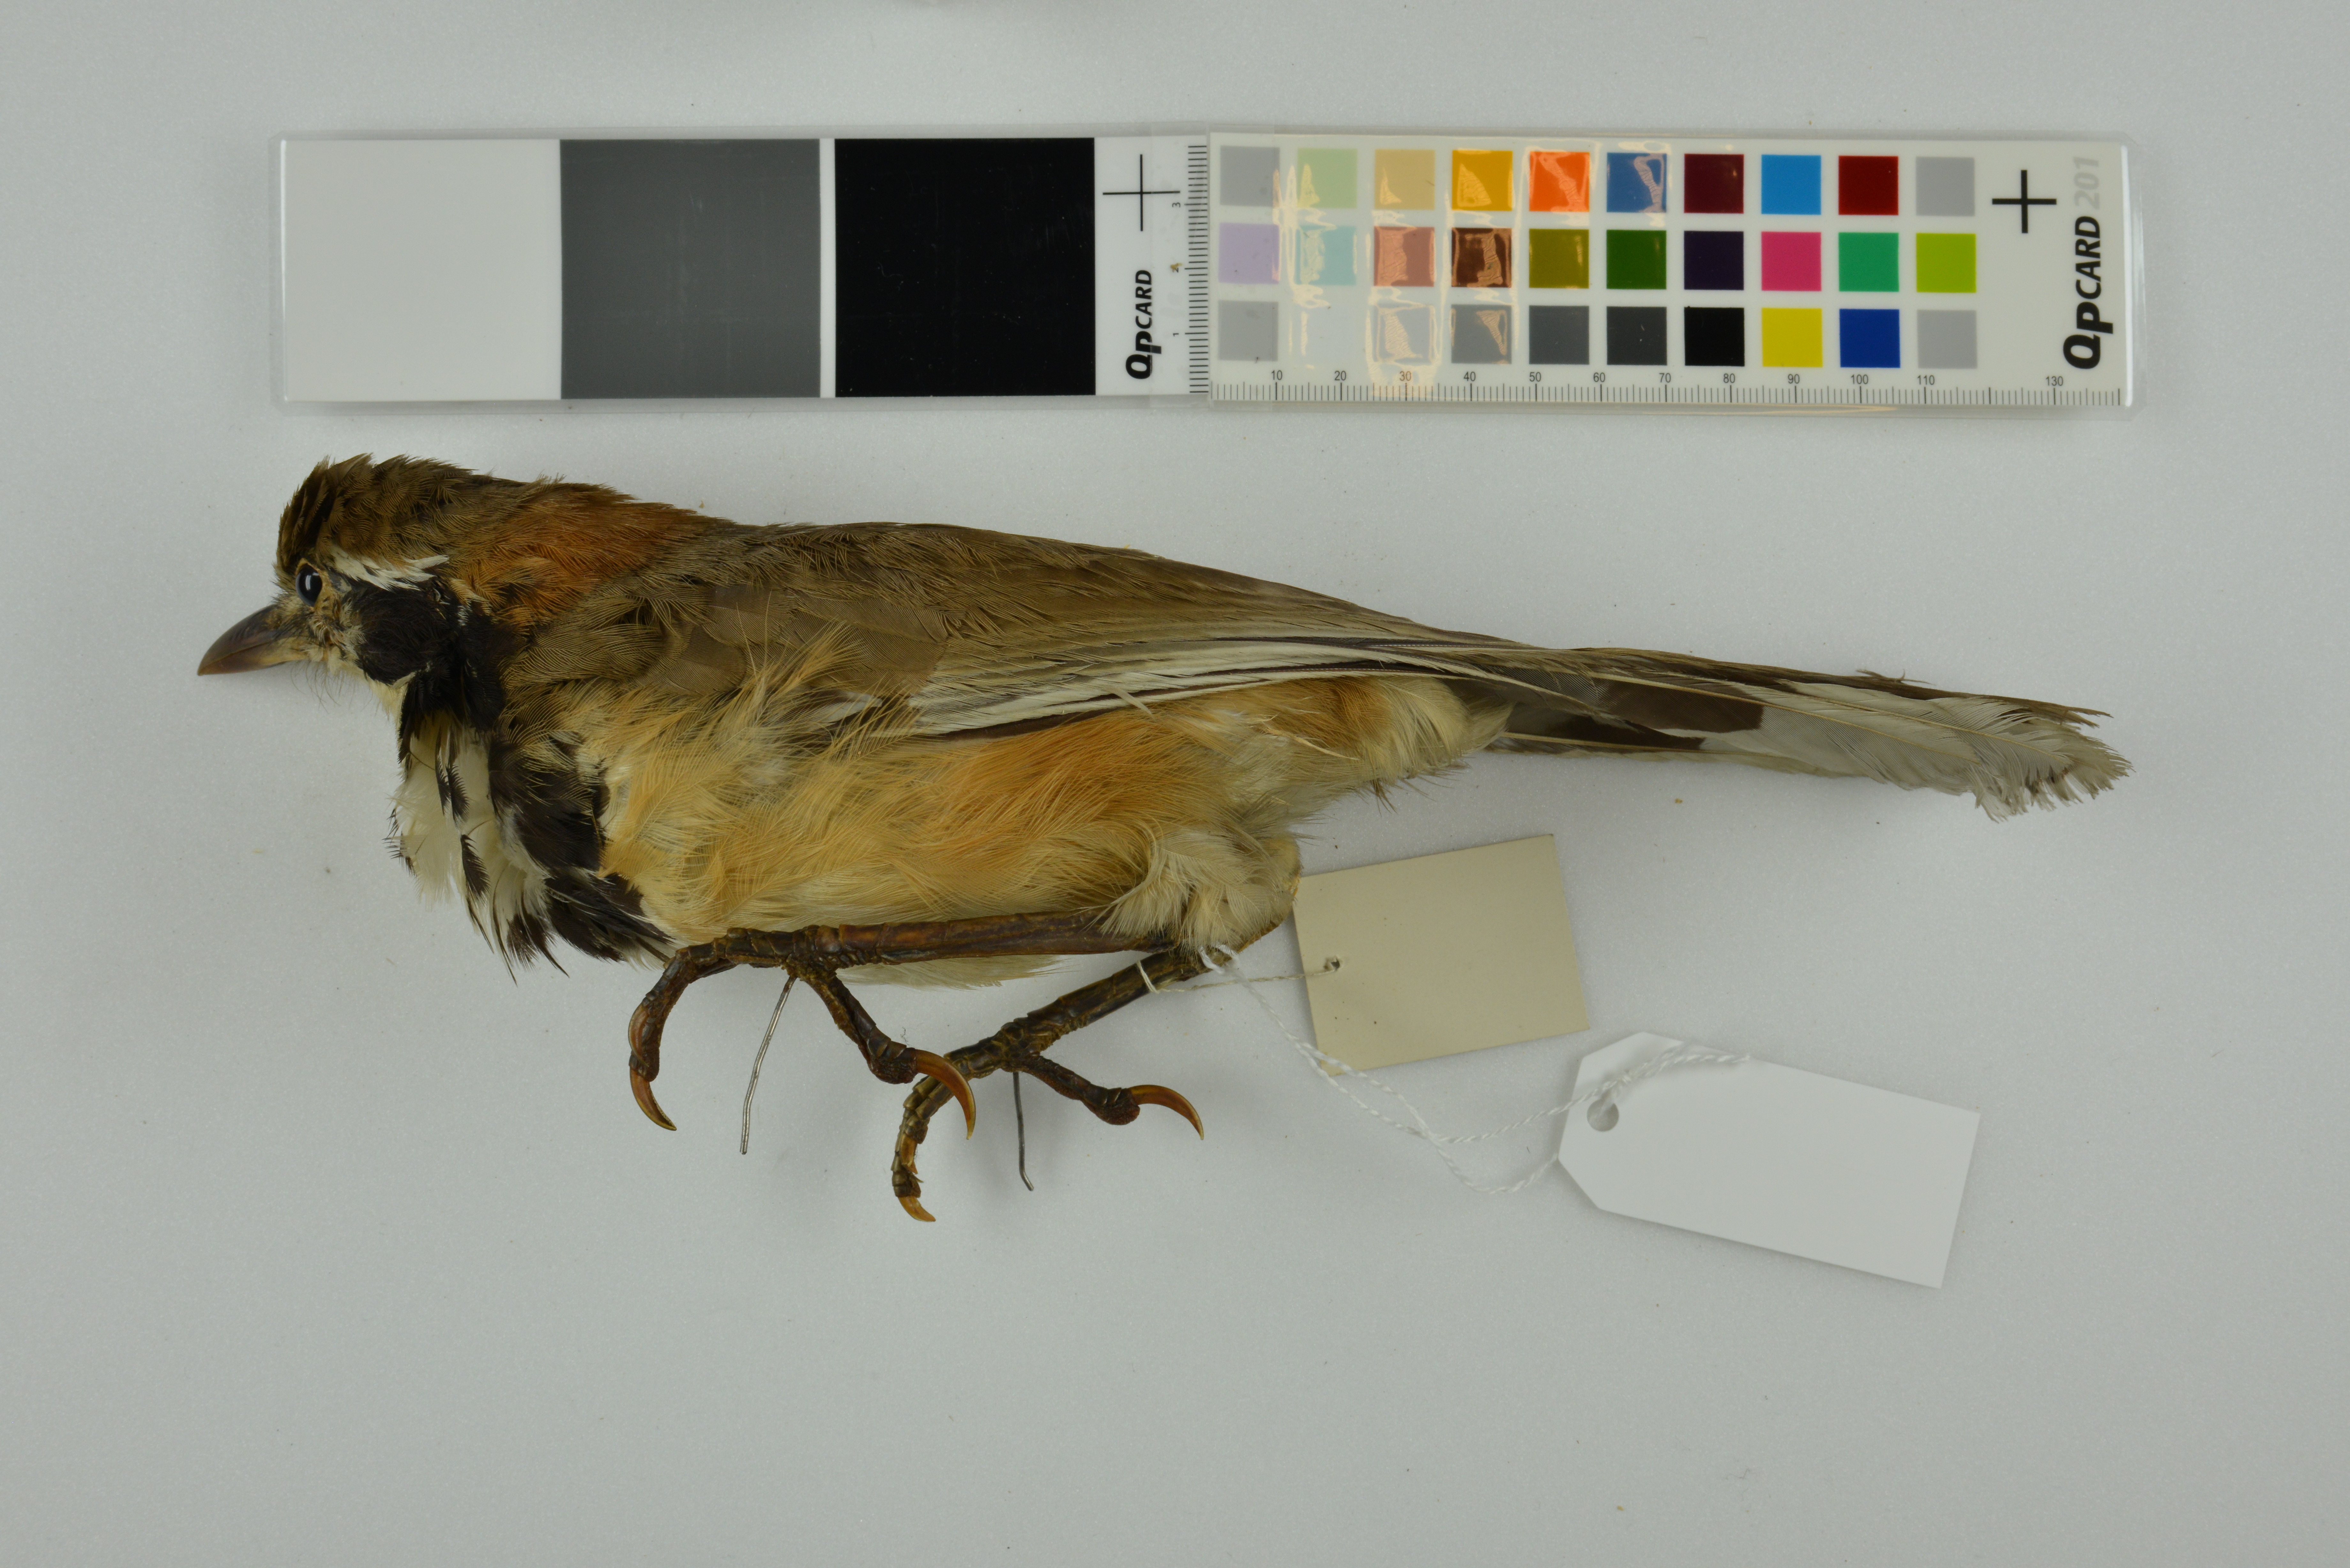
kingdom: Animalia
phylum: Chordata
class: Aves
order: Passeriformes
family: Leiothrichidae
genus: Garrulax
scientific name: Garrulax pectoralis
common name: Greater necklaced laughingthrush
